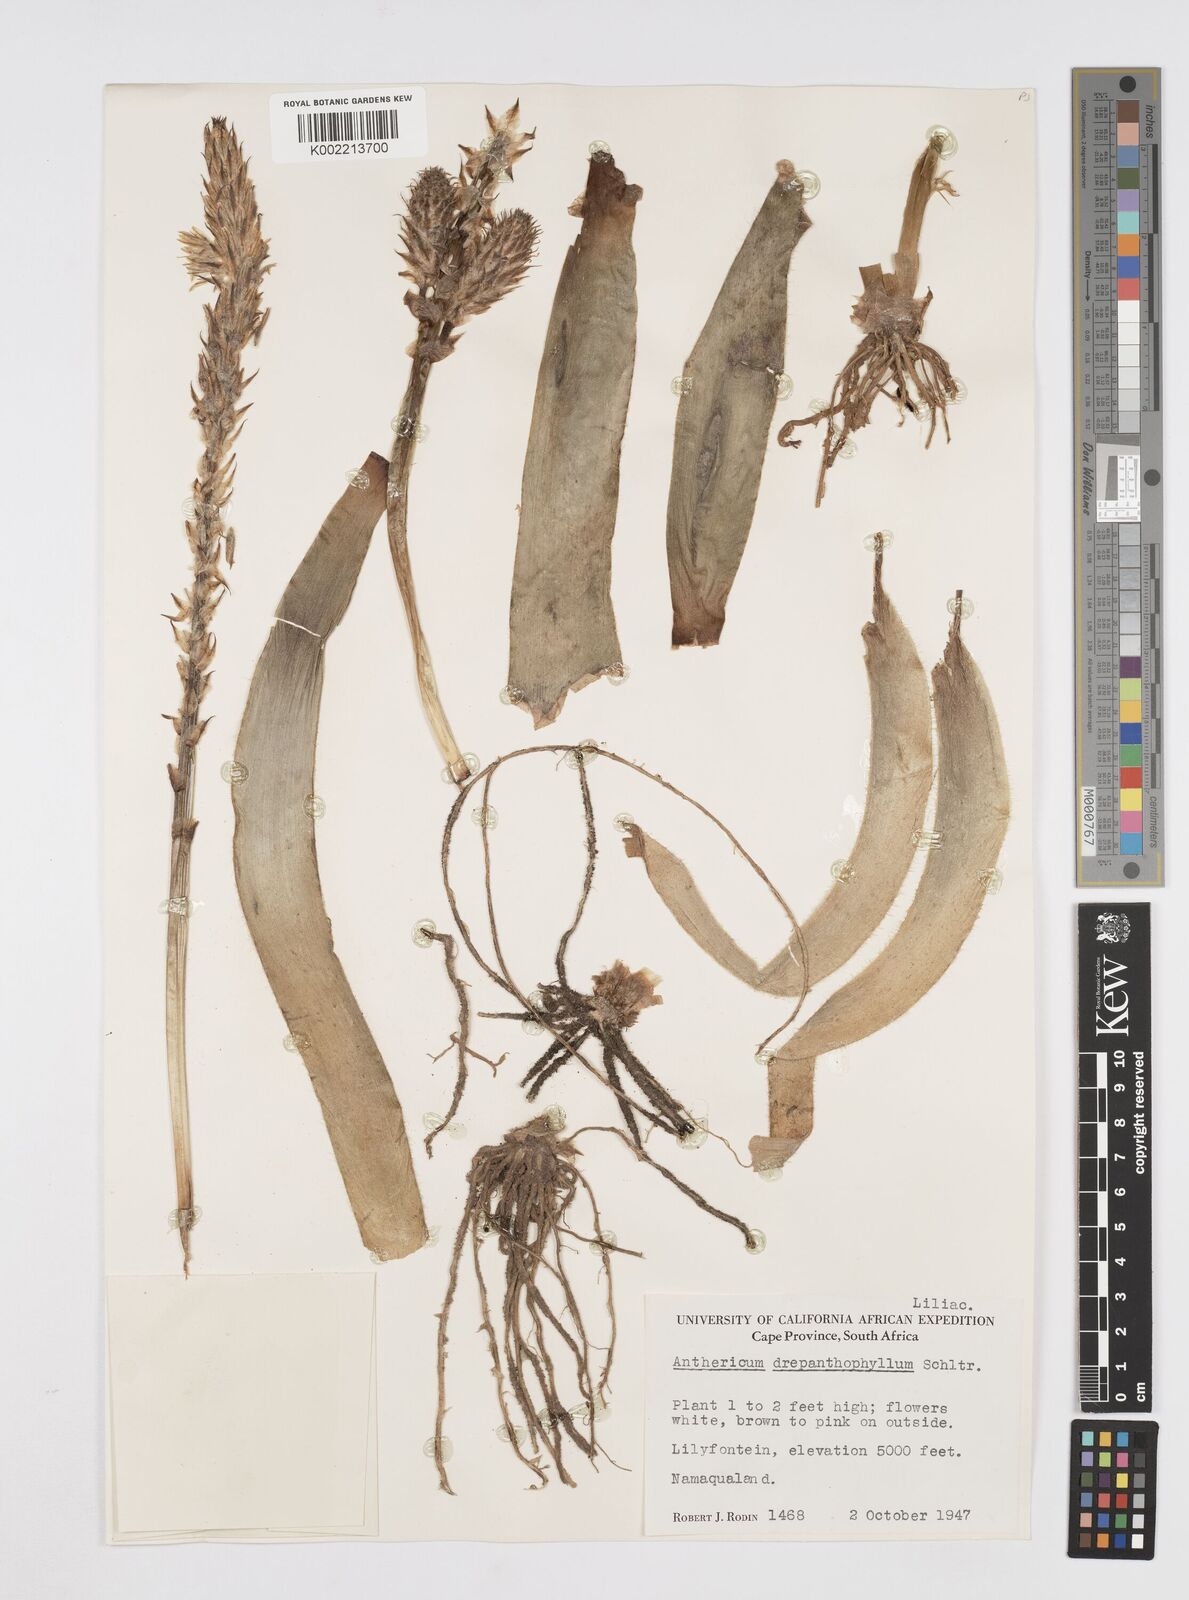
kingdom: Plantae
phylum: Tracheophyta
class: Liliopsida
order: Asparagales
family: Asphodelaceae
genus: Trachyandra
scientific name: Trachyandra falcata
